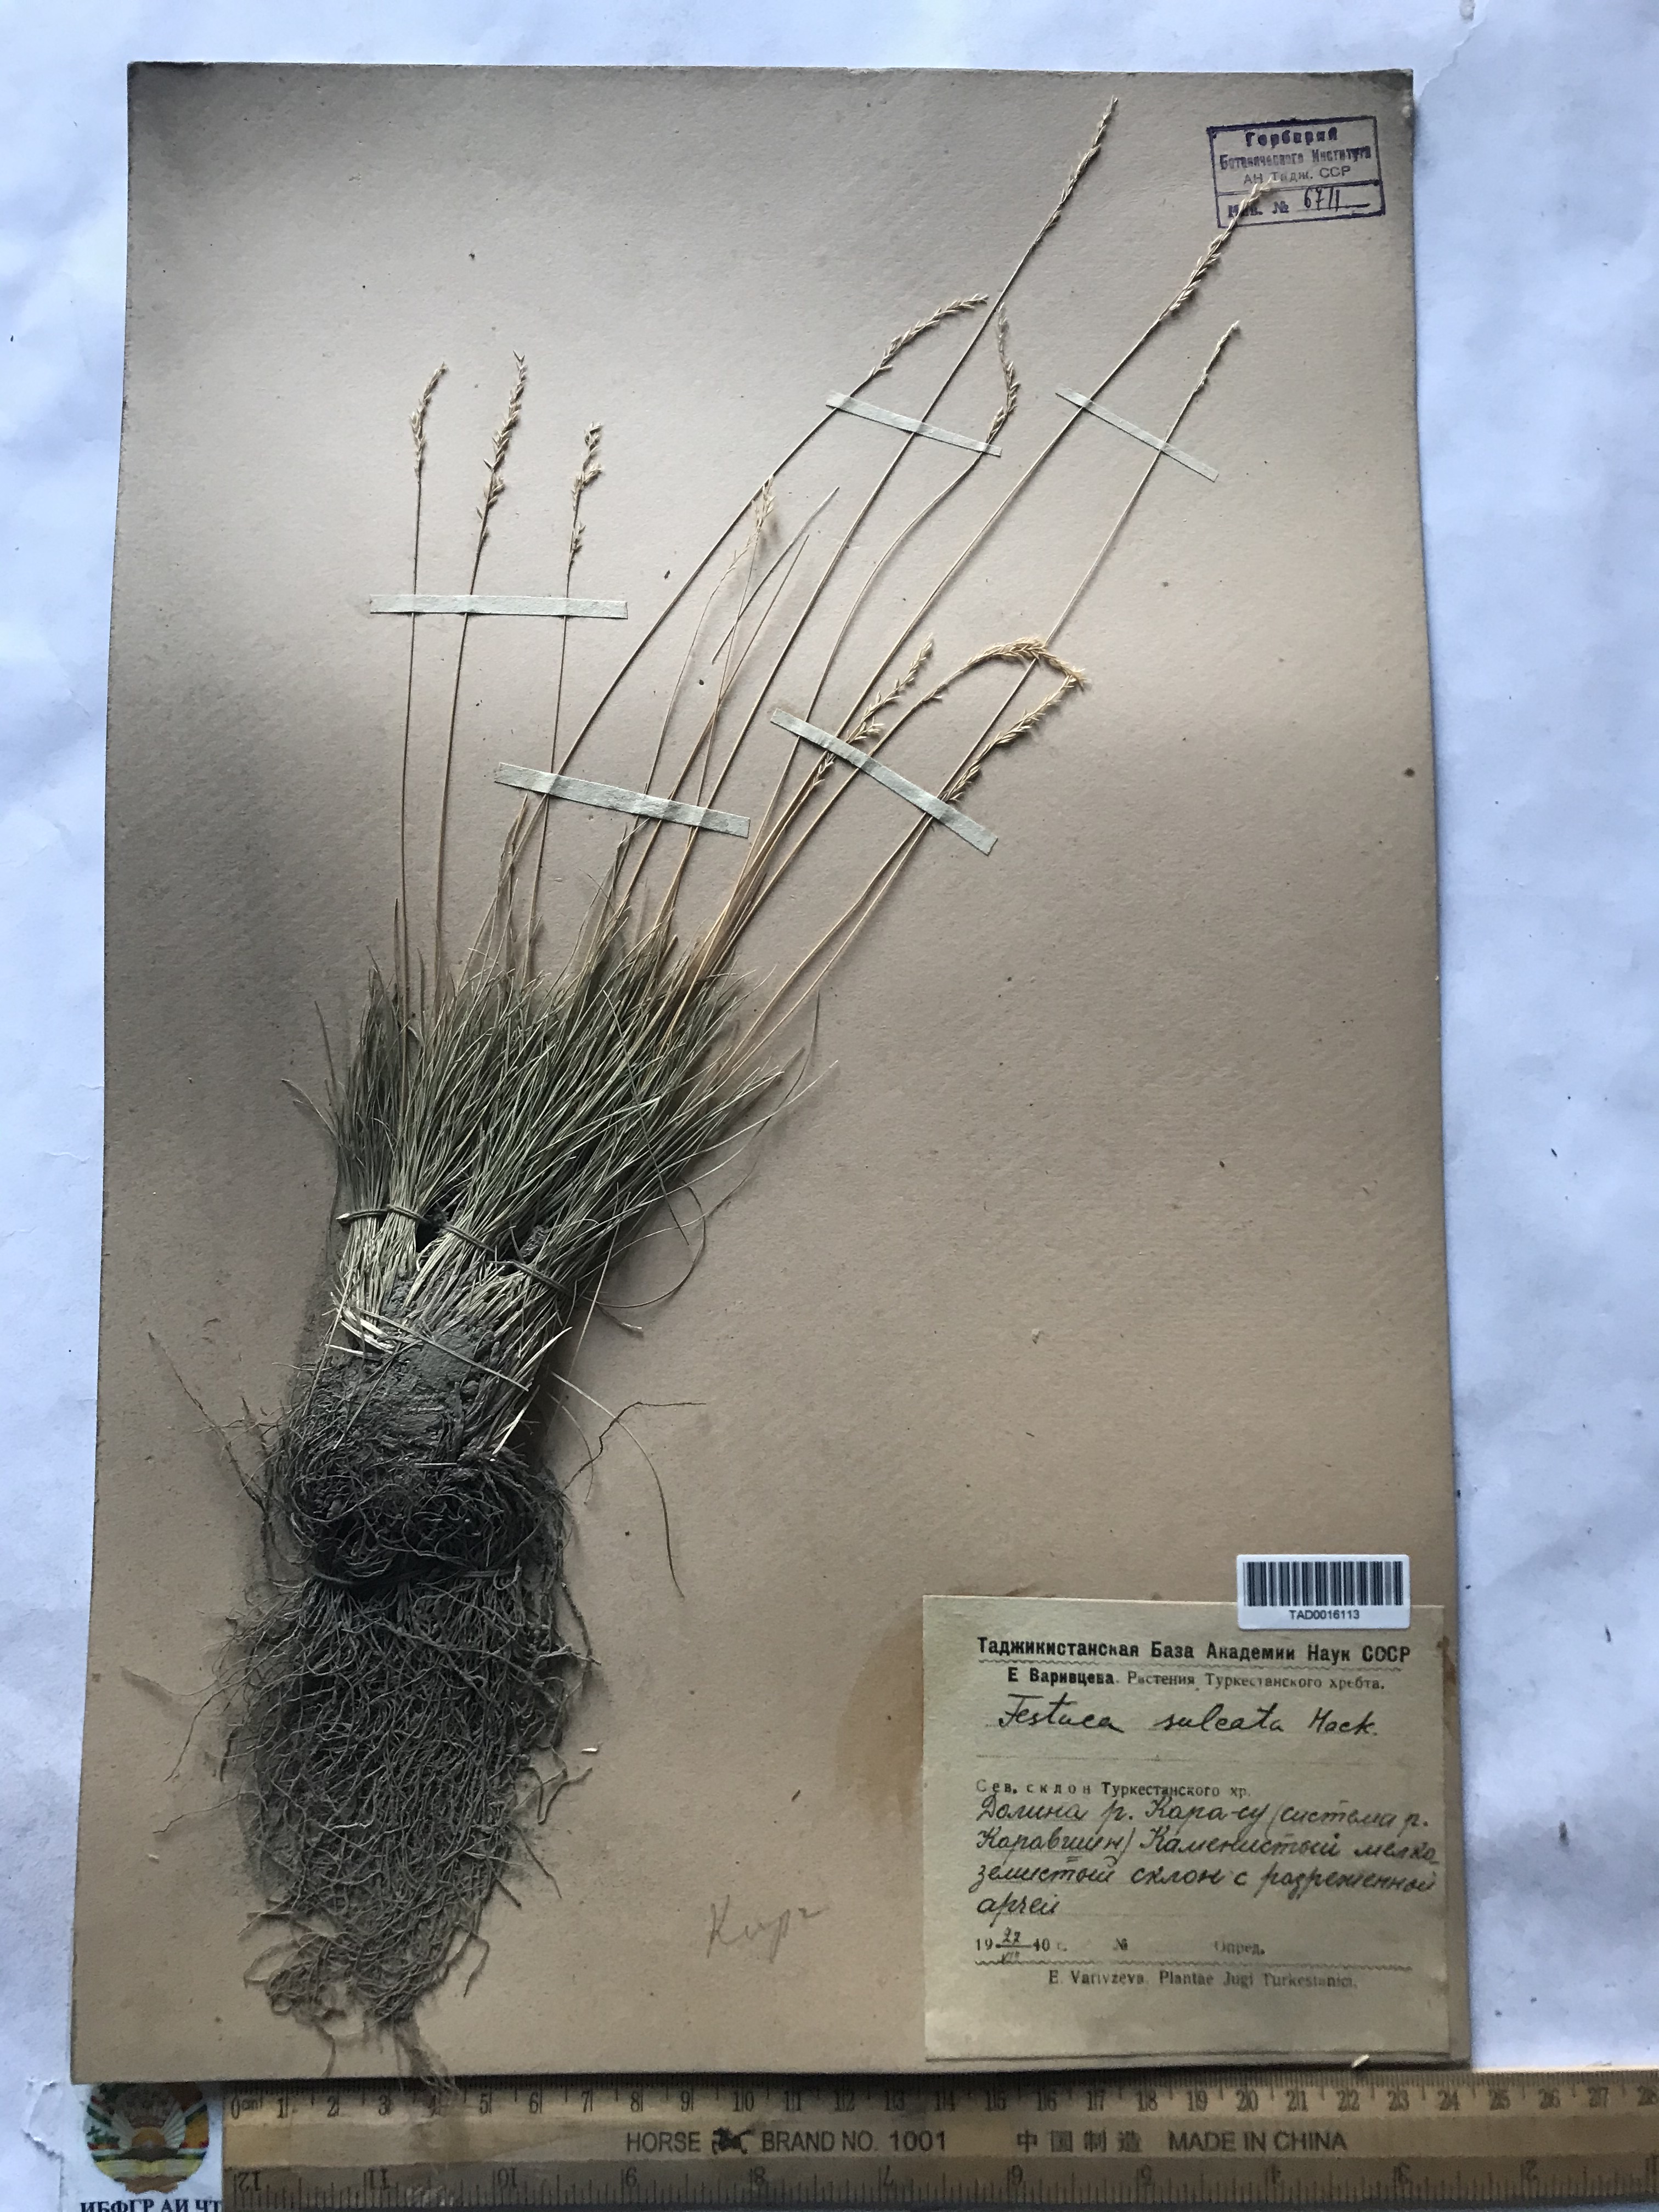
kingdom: Plantae
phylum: Tracheophyta
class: Liliopsida
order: Poales
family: Poaceae
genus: Festuca
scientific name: Festuca sulcata
